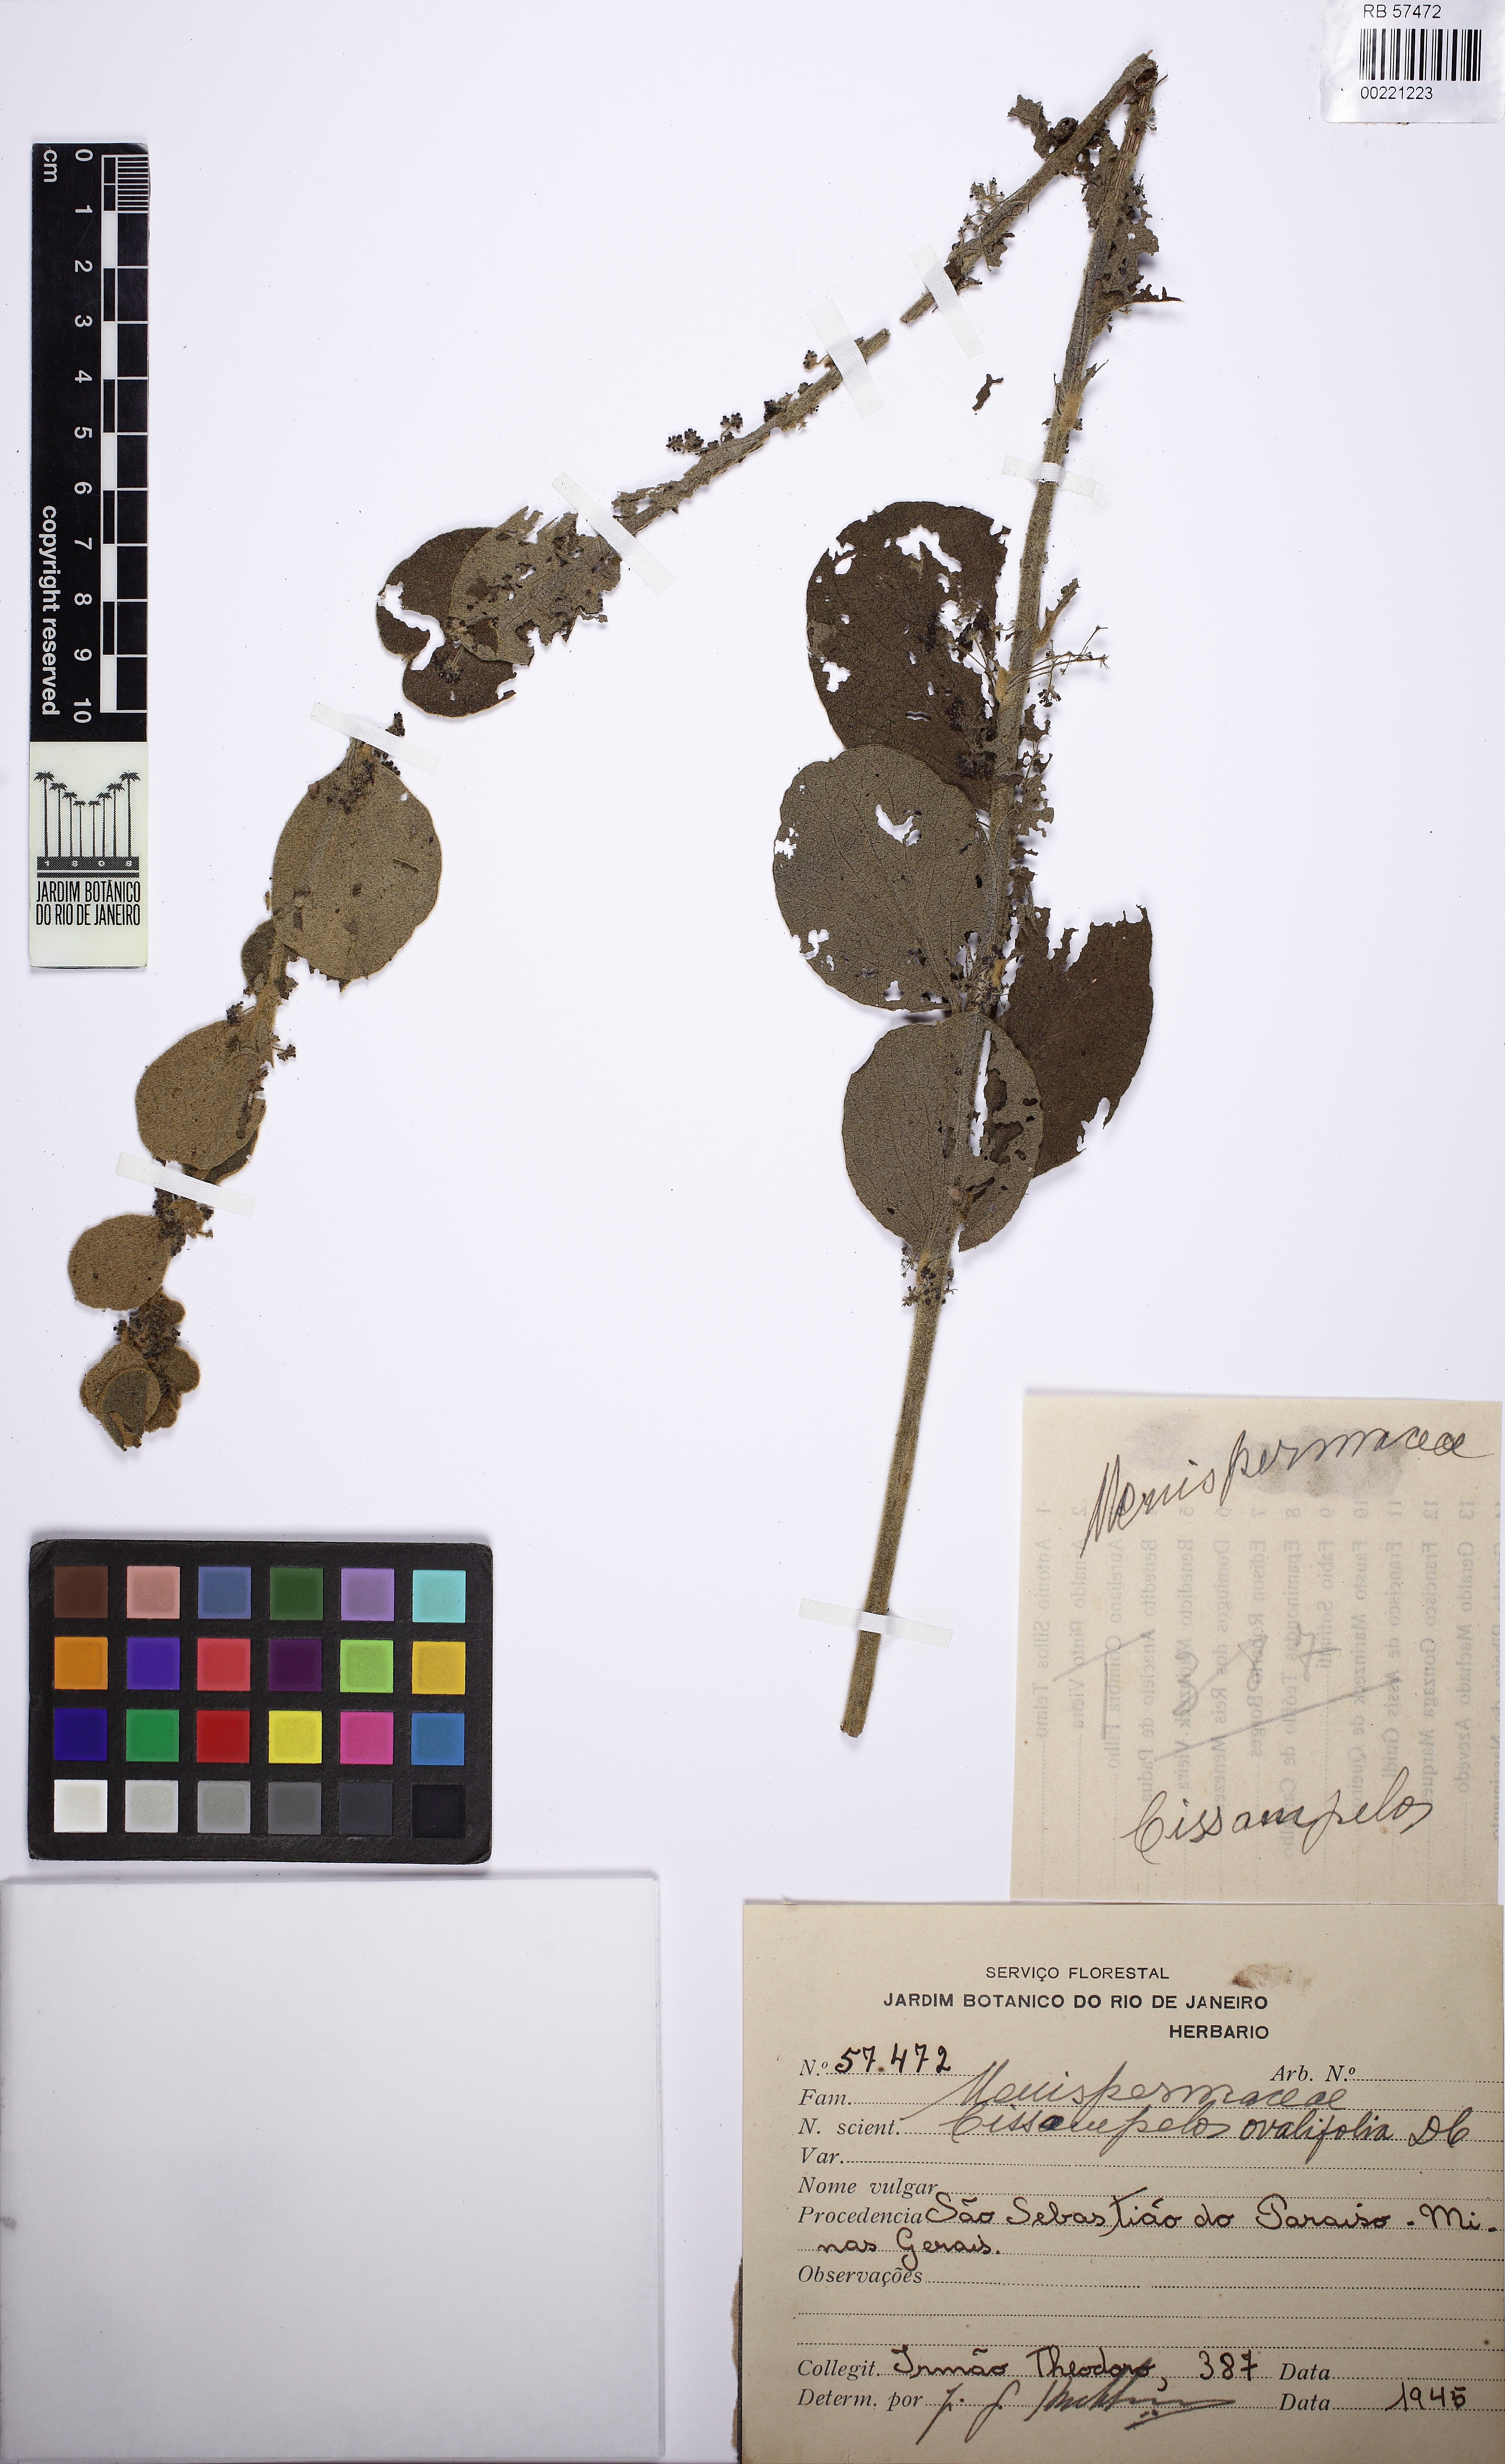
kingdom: Plantae
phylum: Tracheophyta
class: Magnoliopsida
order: Ranunculales
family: Menispermaceae
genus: Cissampelos
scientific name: Cissampelos ovalifolia
